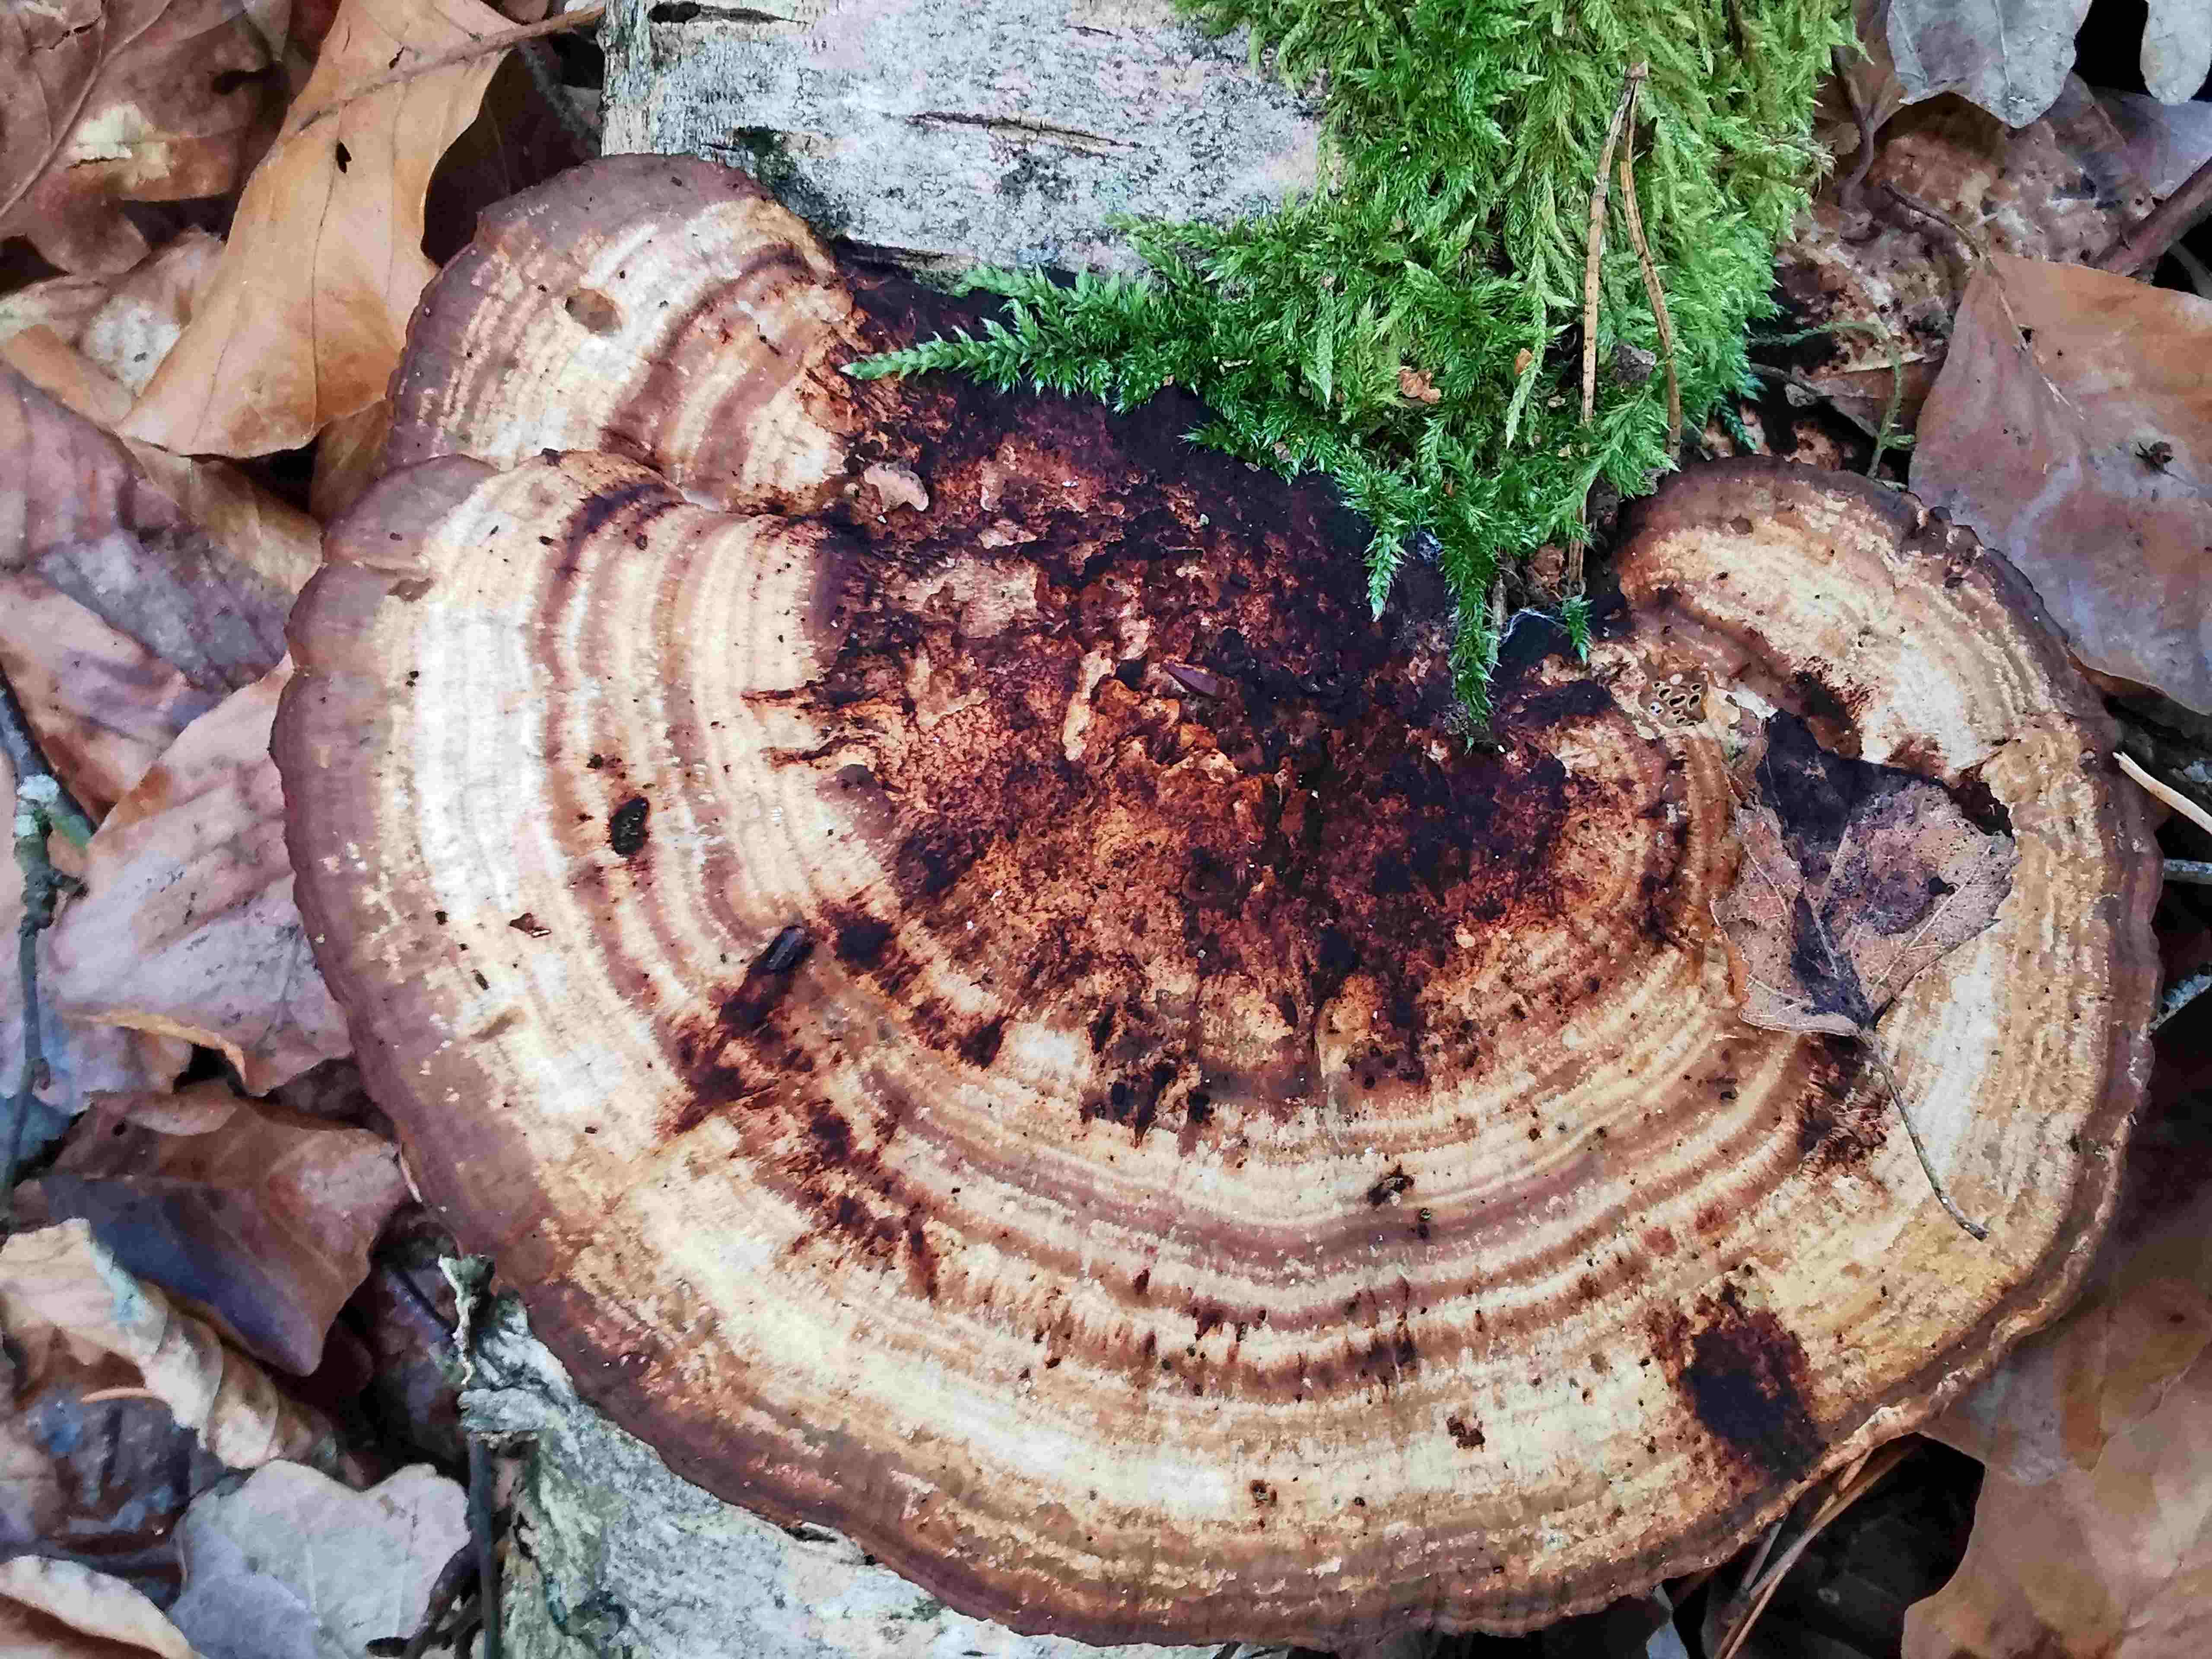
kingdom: Fungi
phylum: Basidiomycota
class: Agaricomycetes
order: Polyporales
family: Polyporaceae
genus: Daedaleopsis
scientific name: Daedaleopsis confragosa
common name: rødmende læderporesvamp
